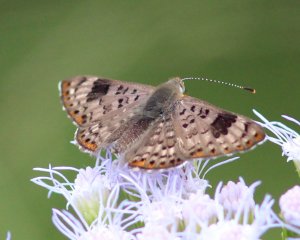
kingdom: Animalia
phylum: Arthropoda
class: Insecta
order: Lepidoptera
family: Riodinidae
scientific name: Riodinidae
